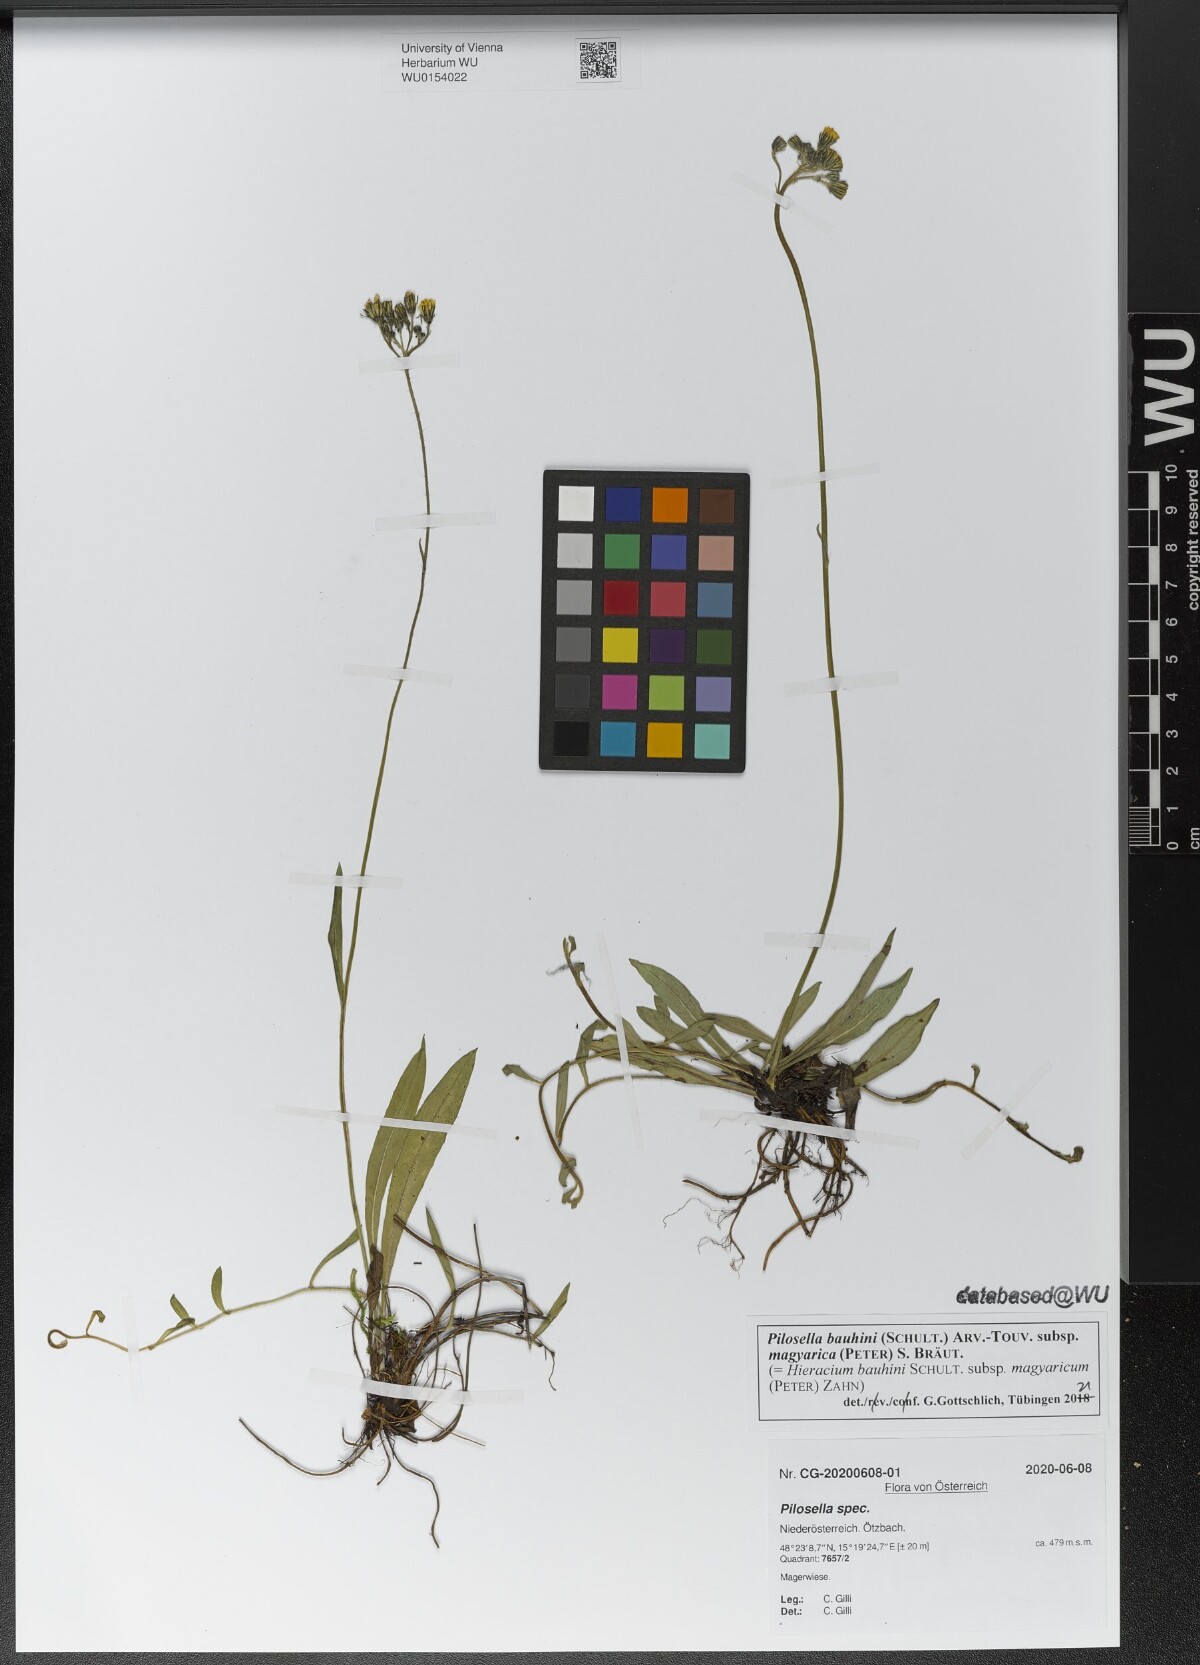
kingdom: Plantae
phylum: Tracheophyta
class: Magnoliopsida
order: Asterales
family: Asteraceae
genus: Pilosella
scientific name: Pilosella bauhini
